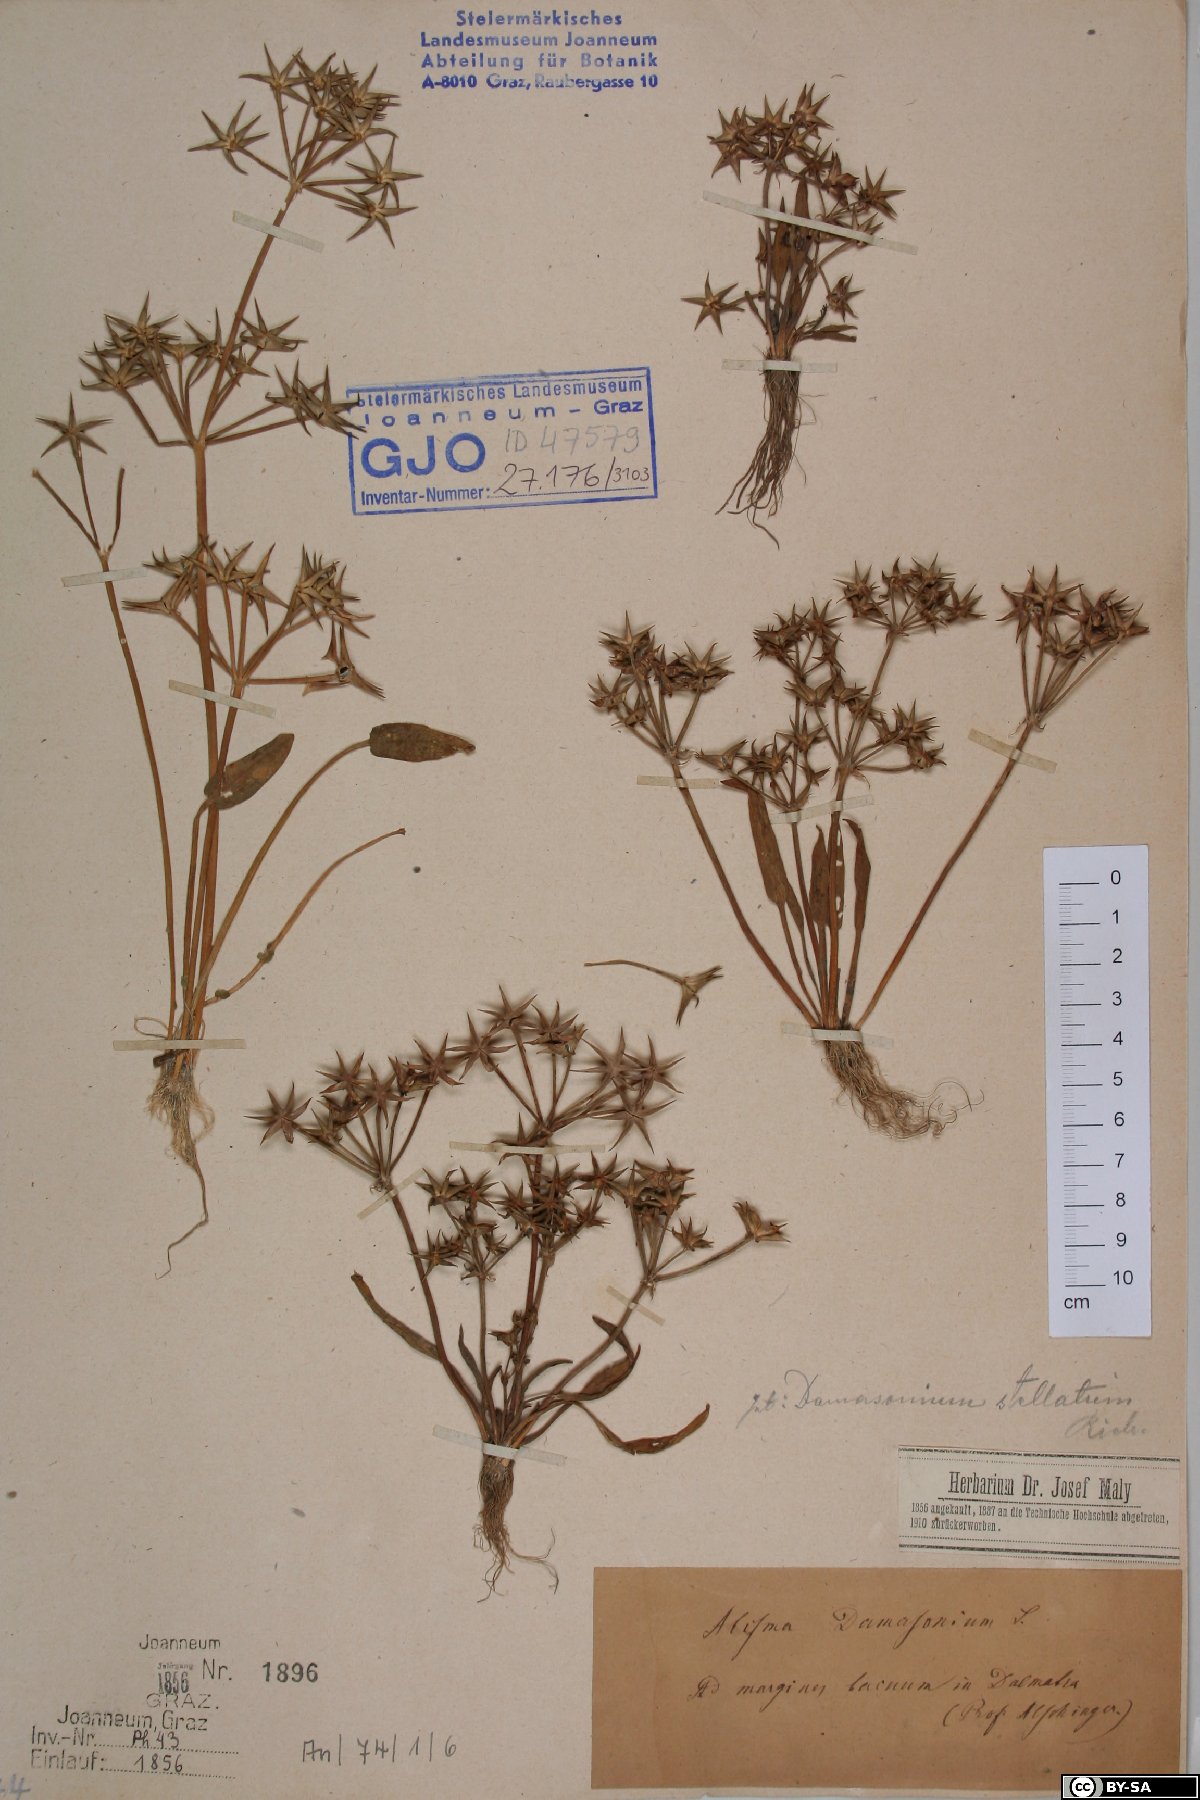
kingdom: Plantae
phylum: Tracheophyta
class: Liliopsida
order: Alismatales
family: Alismataceae
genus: Damasonium
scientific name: Damasonium alisma
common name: Starfruit
